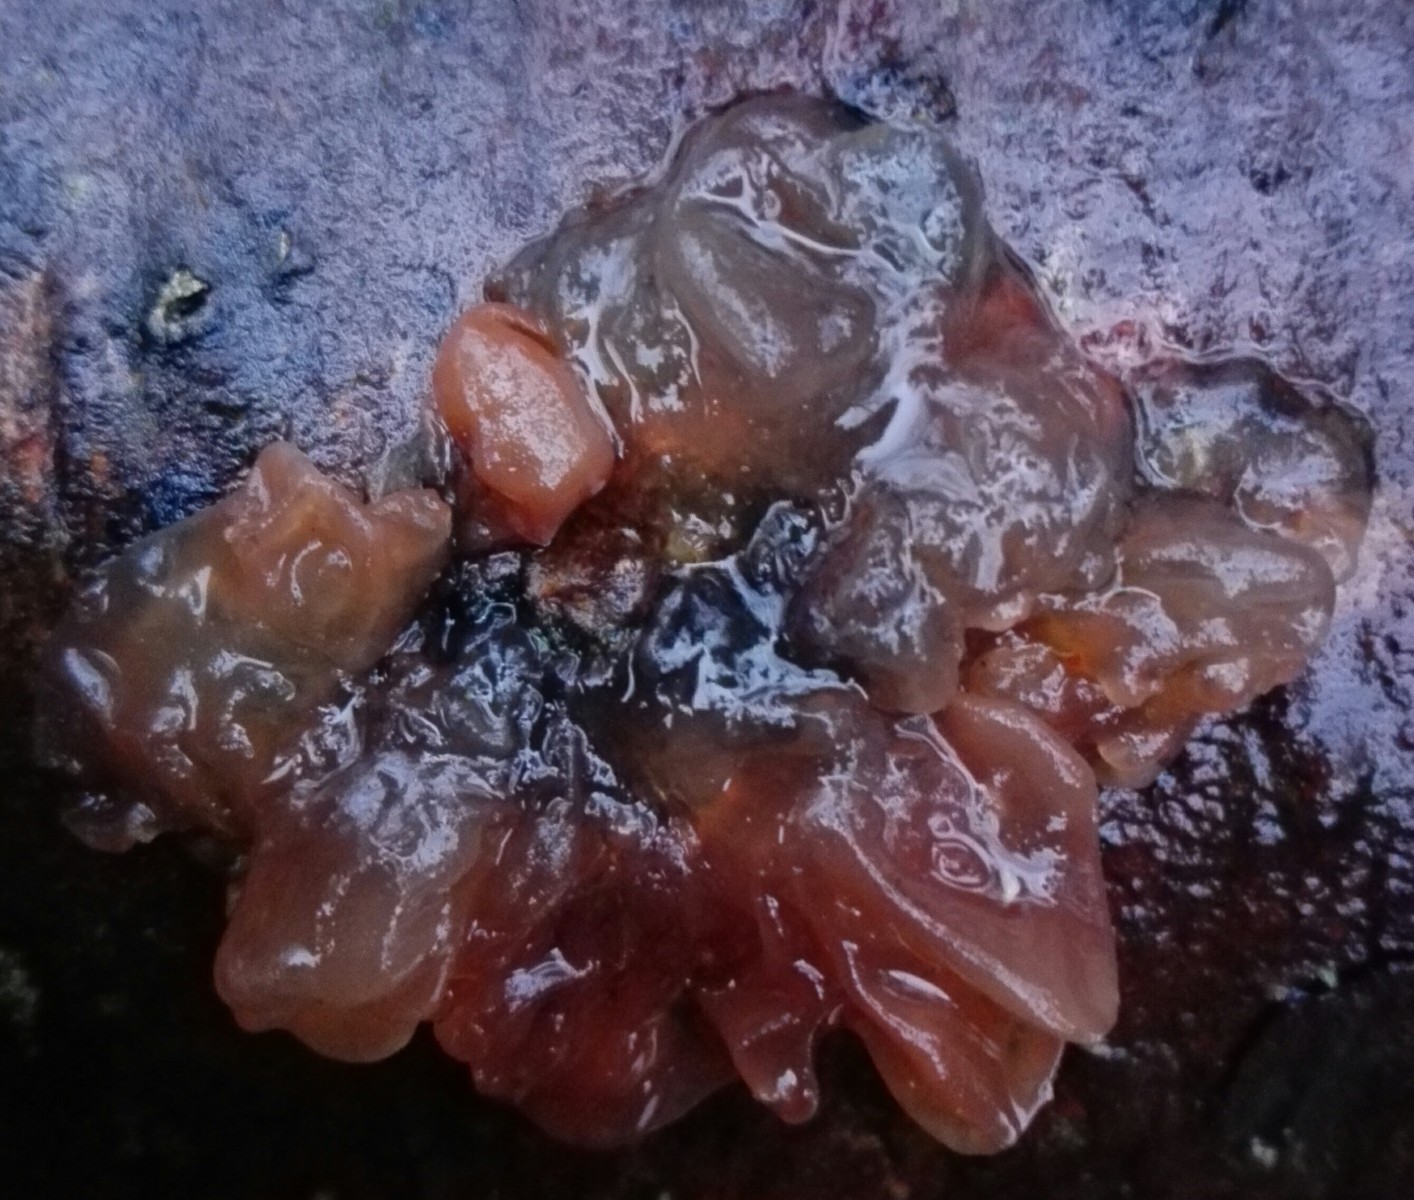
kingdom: Fungi
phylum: Basidiomycota
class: Tremellomycetes
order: Tremellales
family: Tremellaceae
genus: Phaeotremella
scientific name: Phaeotremella foliacea
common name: brun bævresvamp
